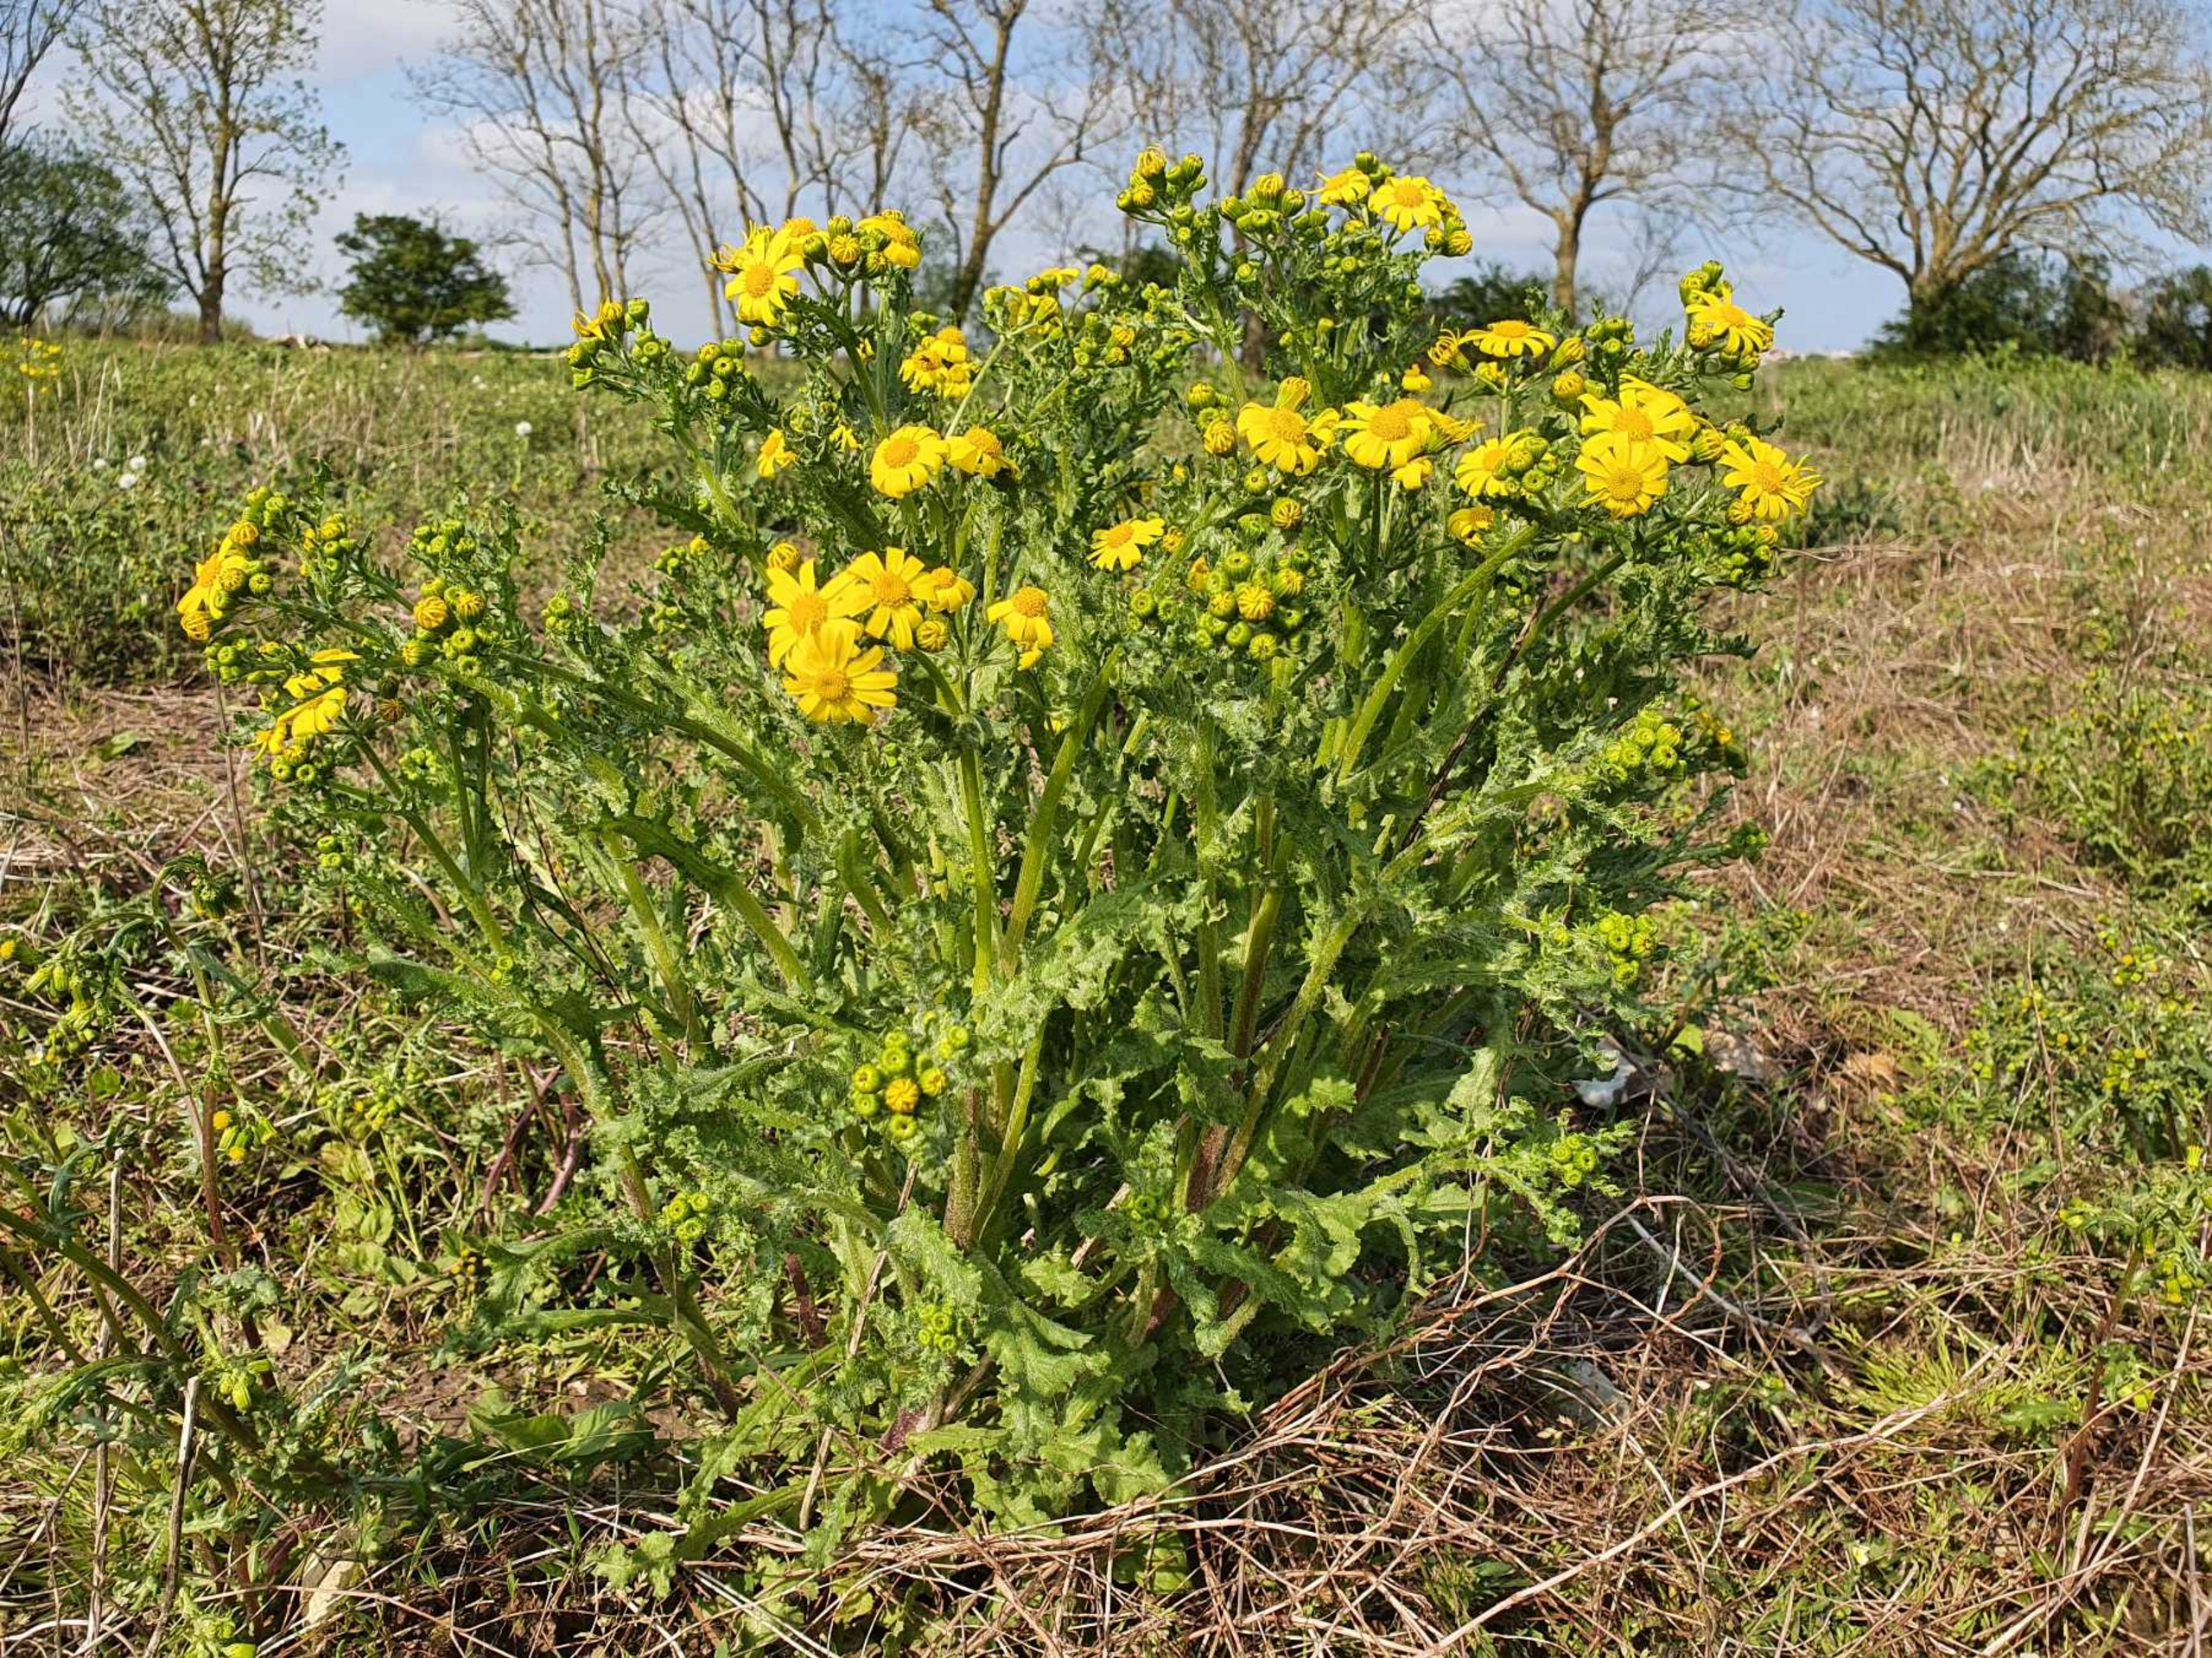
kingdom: Plantae
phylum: Tracheophyta
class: Magnoliopsida
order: Asterales
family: Asteraceae
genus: Senecio
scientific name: Senecio leucanthemifolius
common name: Vår-brandbæger
